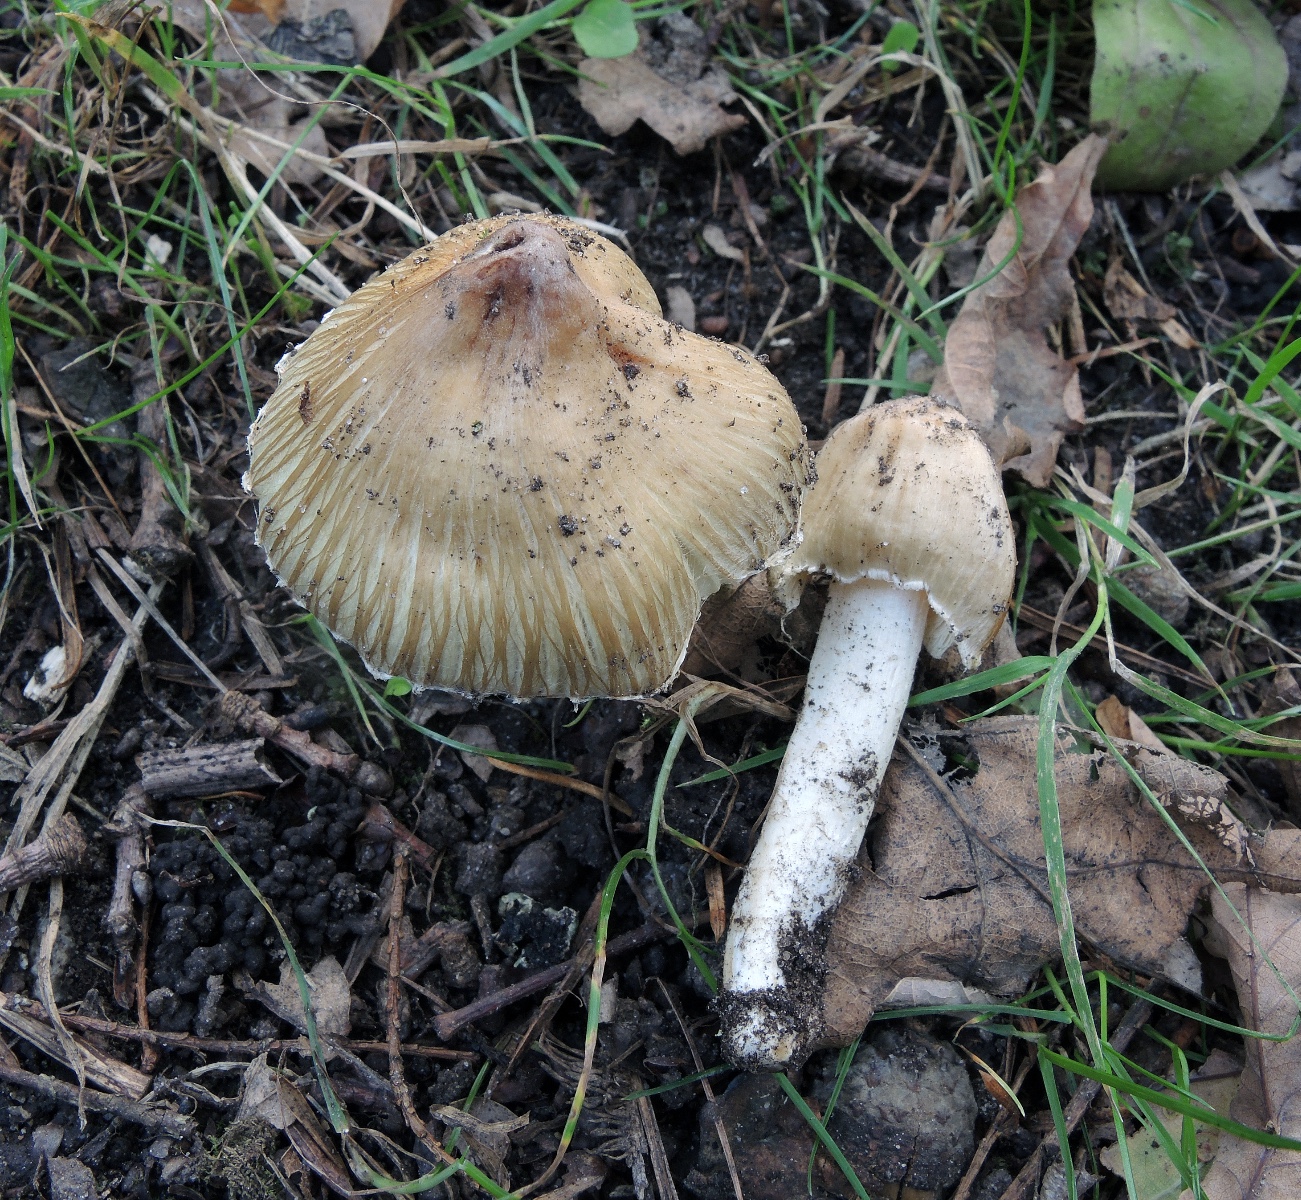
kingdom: Fungi
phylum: Basidiomycota
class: Agaricomycetes
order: Agaricales
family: Inocybaceae
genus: Pseudosperma
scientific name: Pseudosperma rimosum
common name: gulbladet trævlhat
